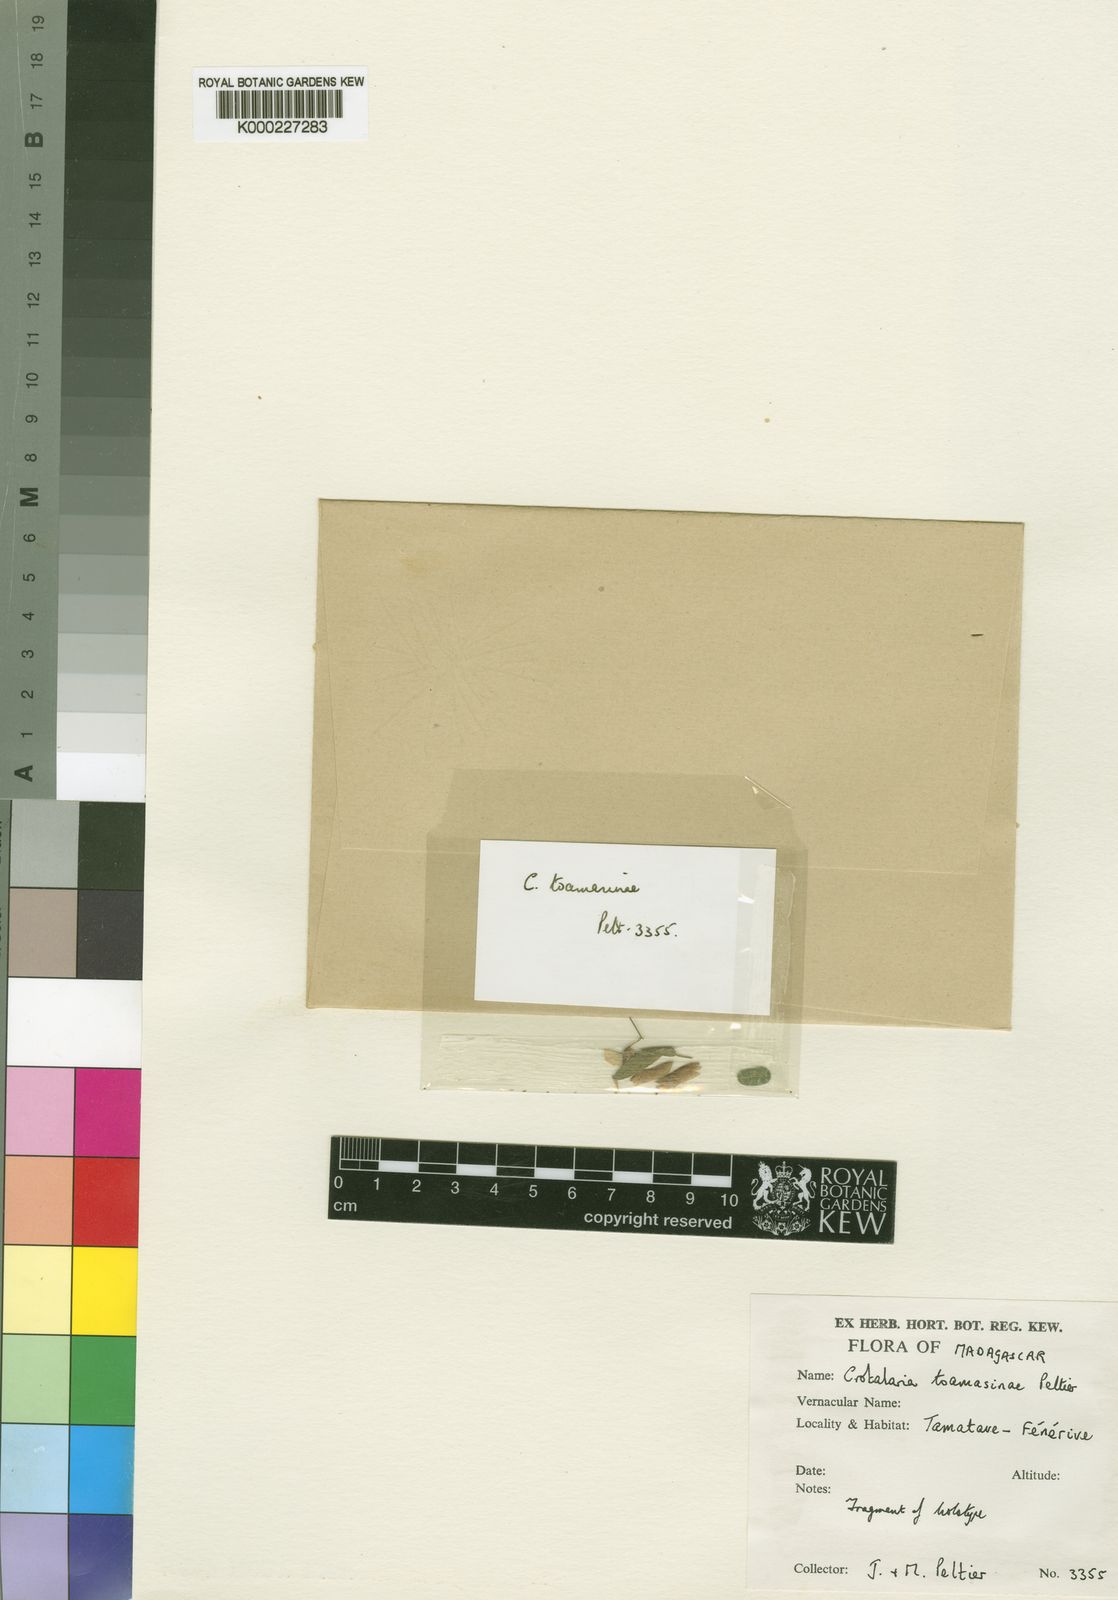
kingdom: Plantae
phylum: Tracheophyta
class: Magnoliopsida
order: Fabales
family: Fabaceae
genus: Crotalaria
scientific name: Crotalaria toamasinae
